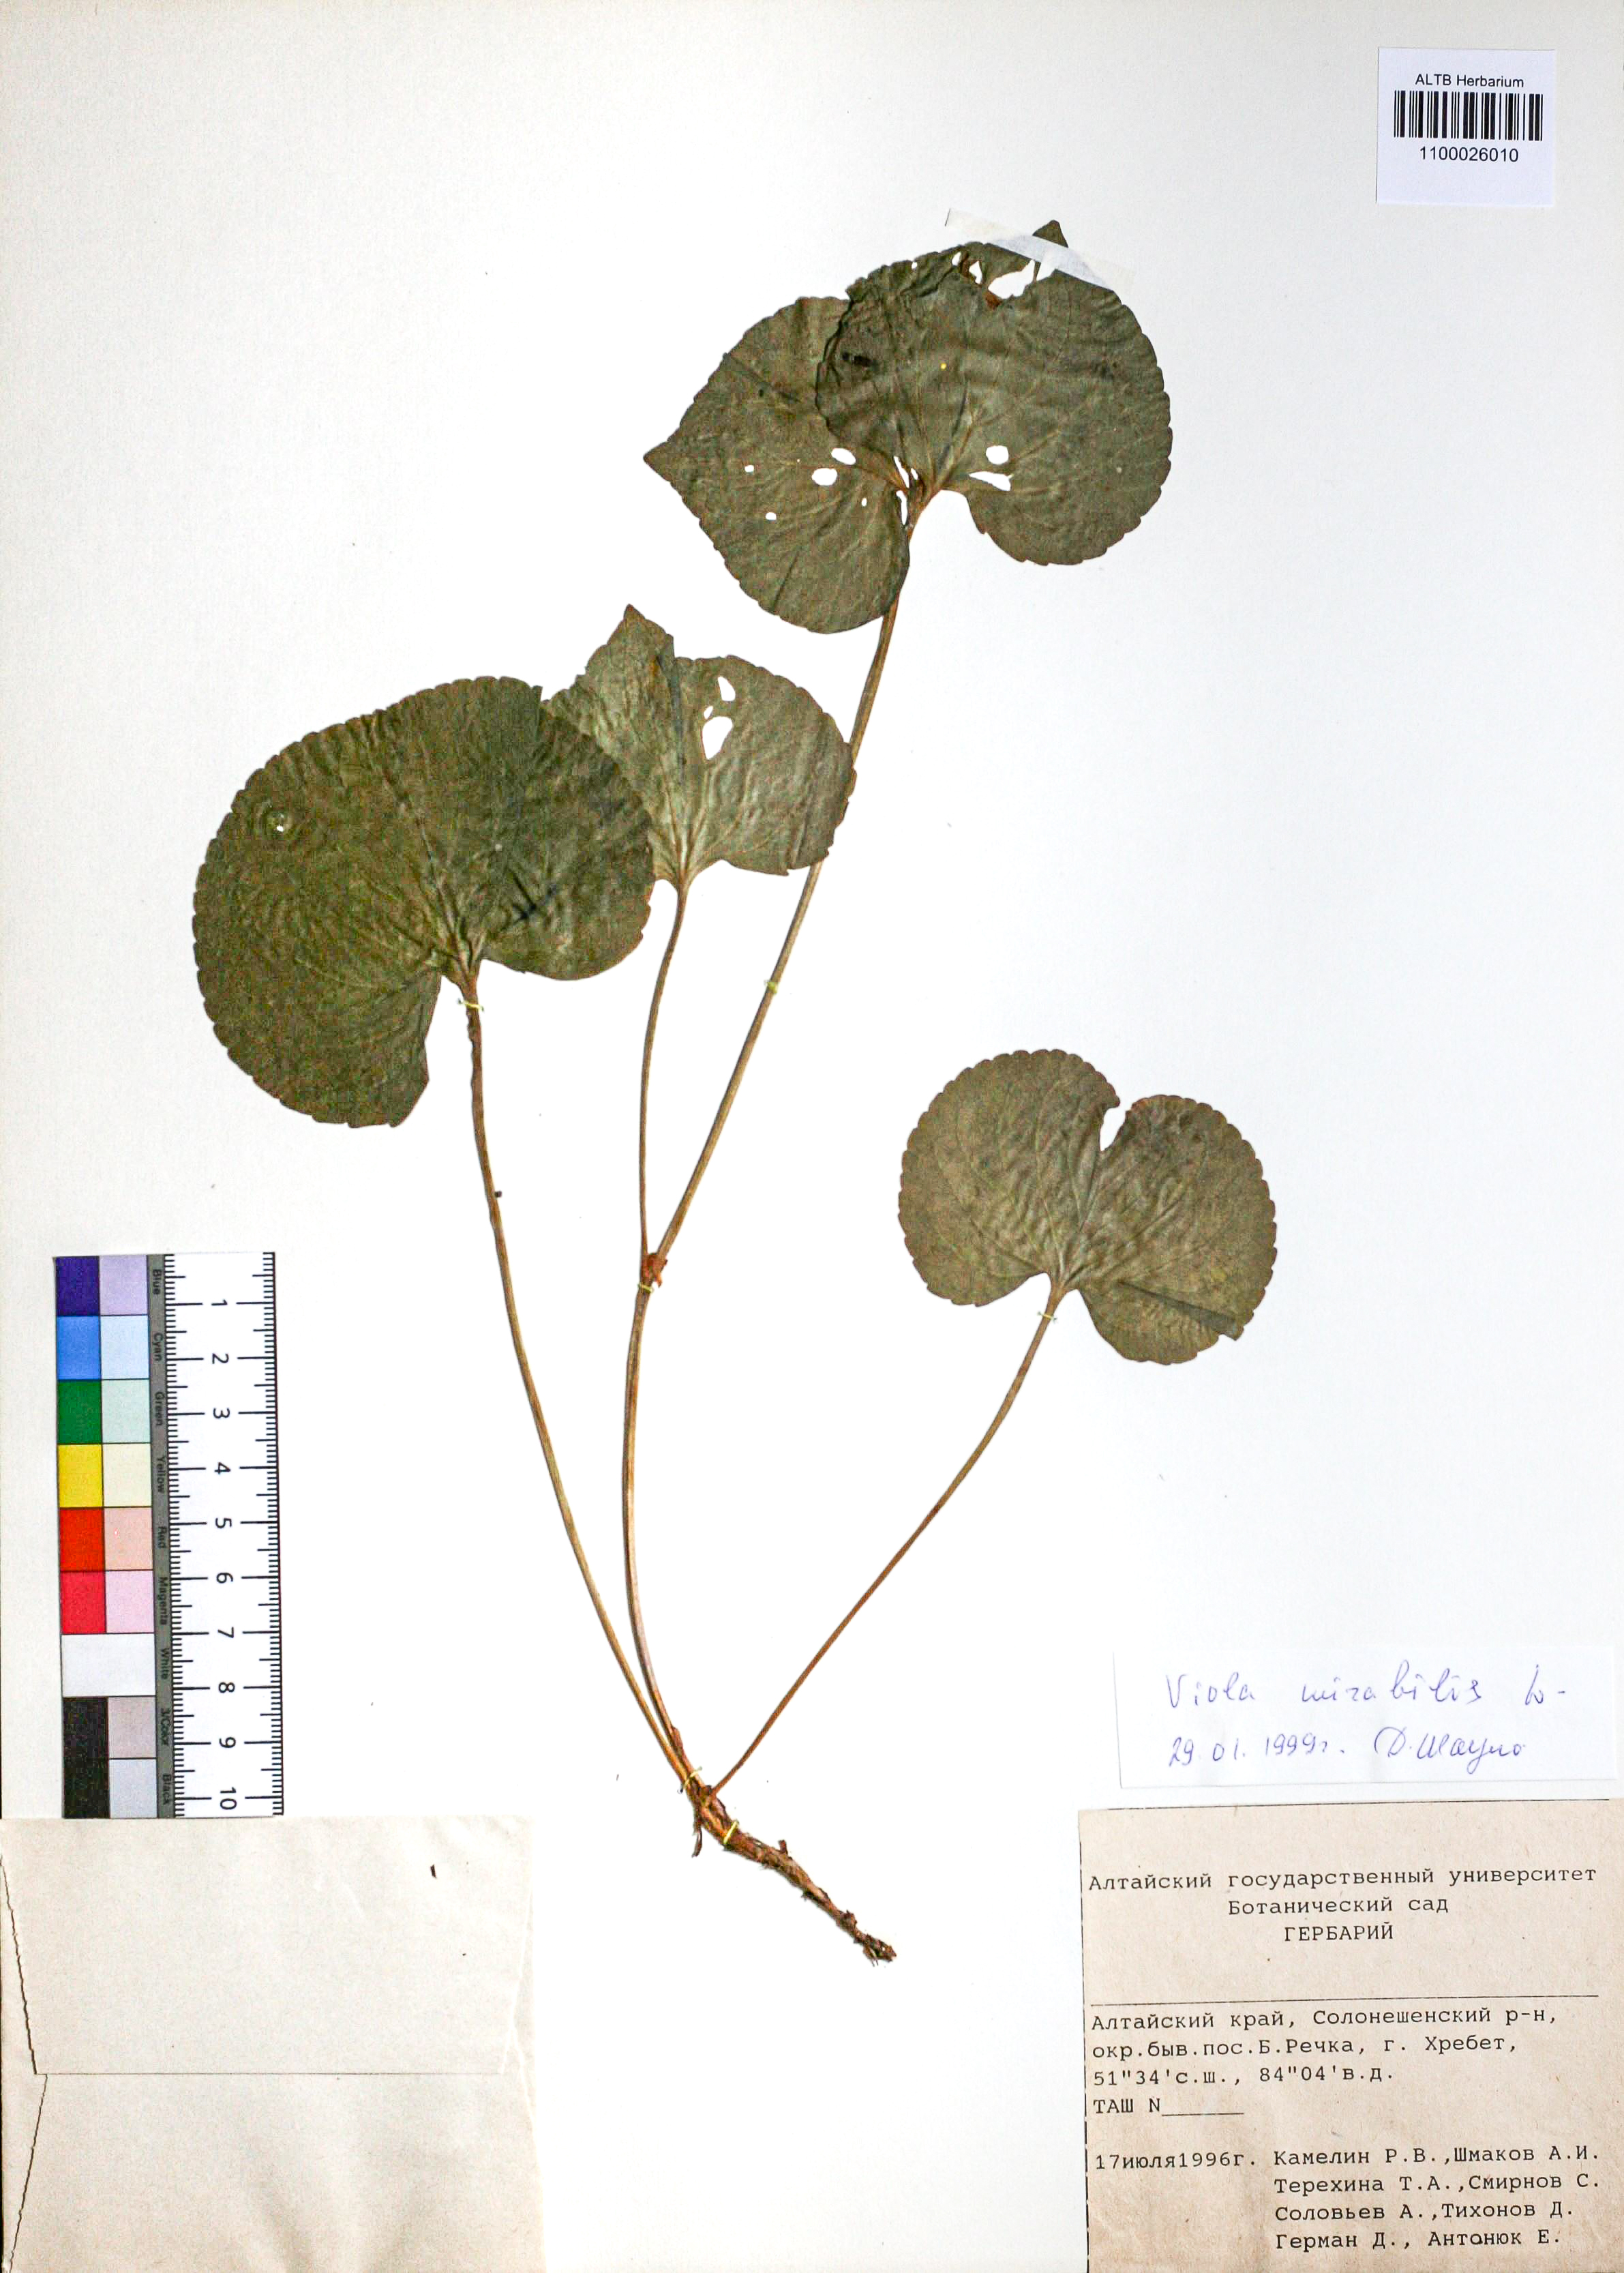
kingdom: Plantae
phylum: Tracheophyta
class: Magnoliopsida
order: Malpighiales
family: Violaceae
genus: Viola
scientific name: Viola mirabilis
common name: Wonder violet
